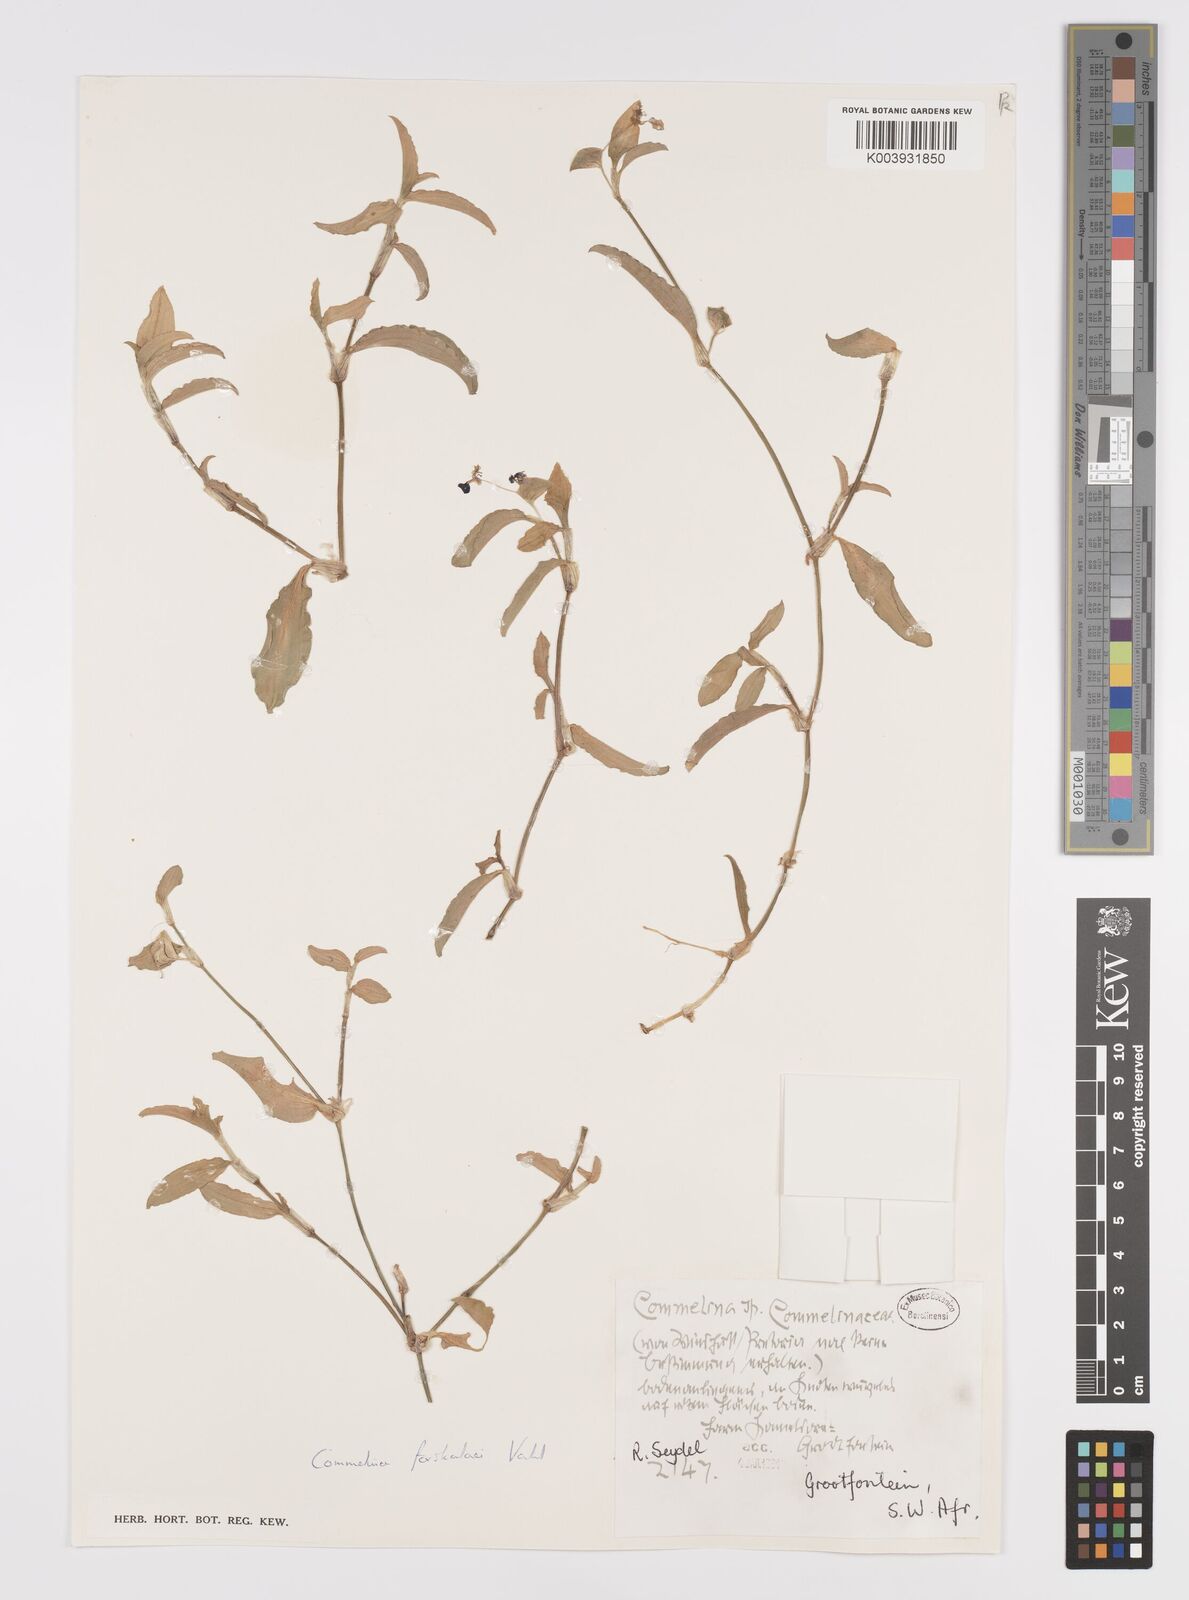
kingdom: Plantae
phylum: Tracheophyta
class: Liliopsida
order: Commelinales
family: Commelinaceae
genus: Commelina
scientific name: Commelina forskaolii
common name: Rat's ear
